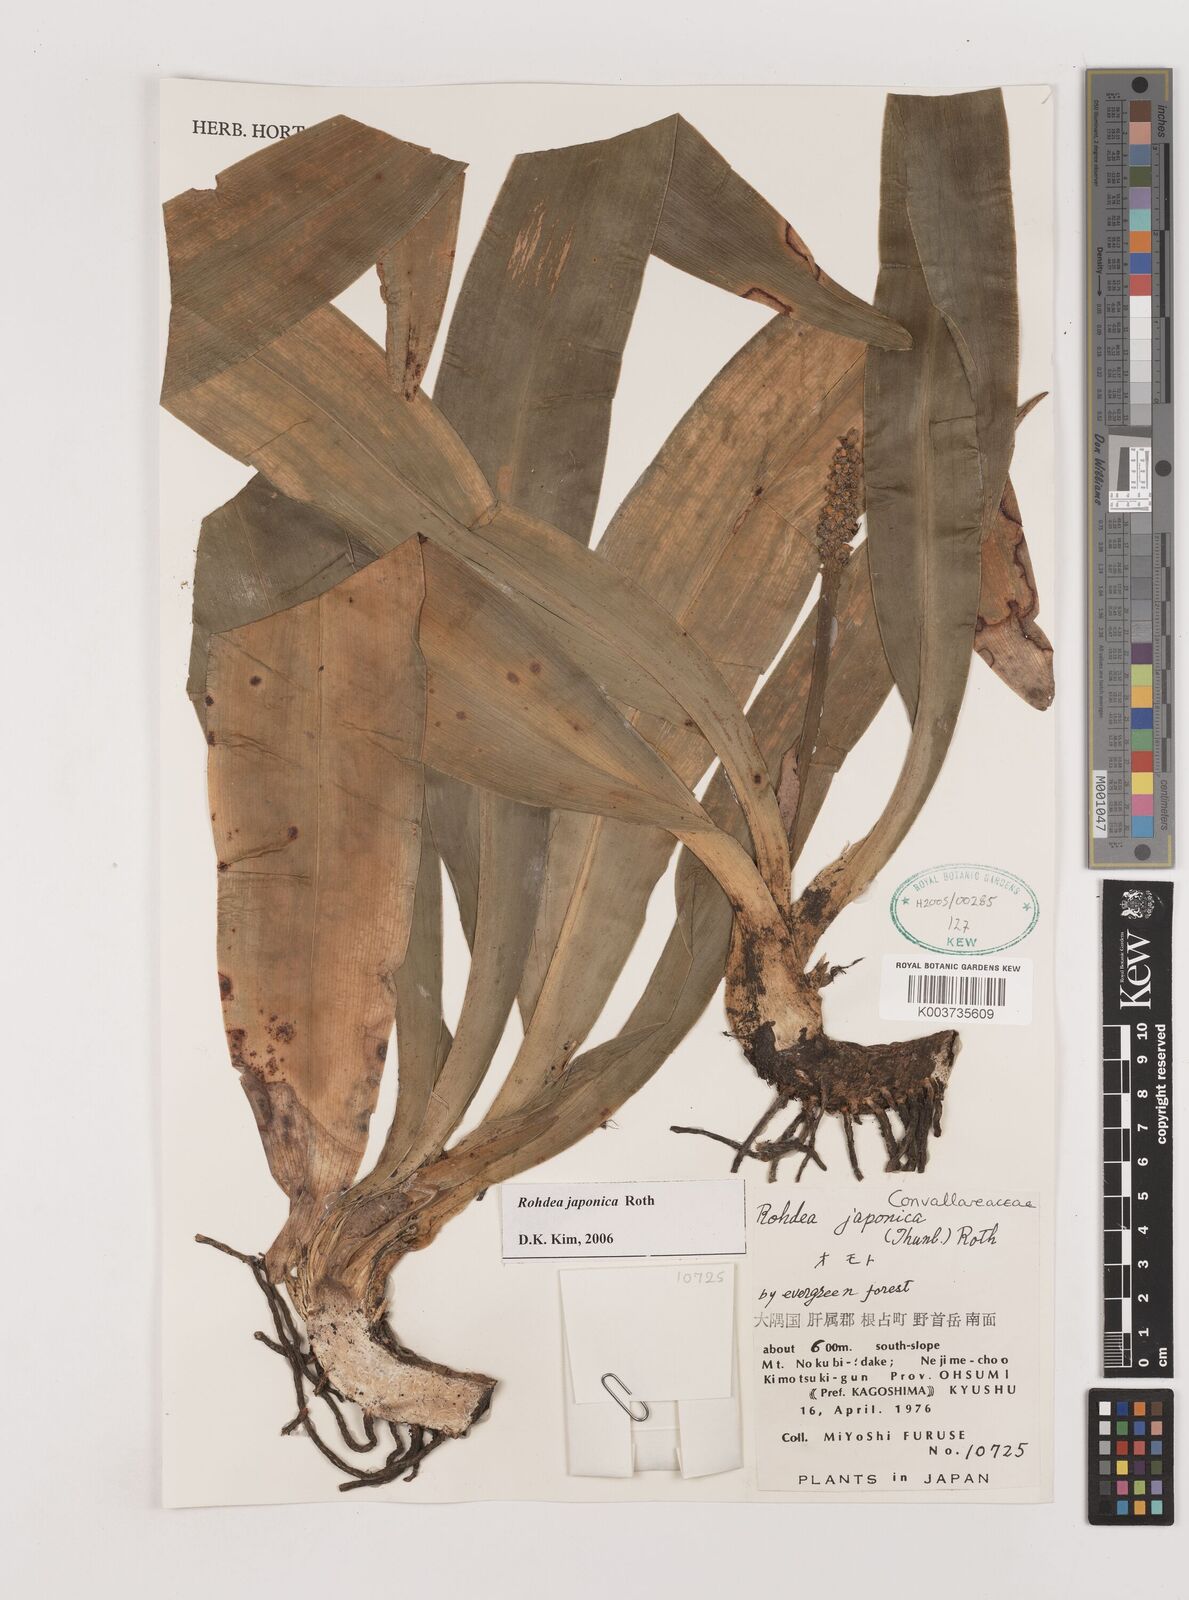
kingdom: Plantae
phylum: Tracheophyta
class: Liliopsida
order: Asparagales
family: Asparagaceae
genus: Rohdea
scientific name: Rohdea japonica
